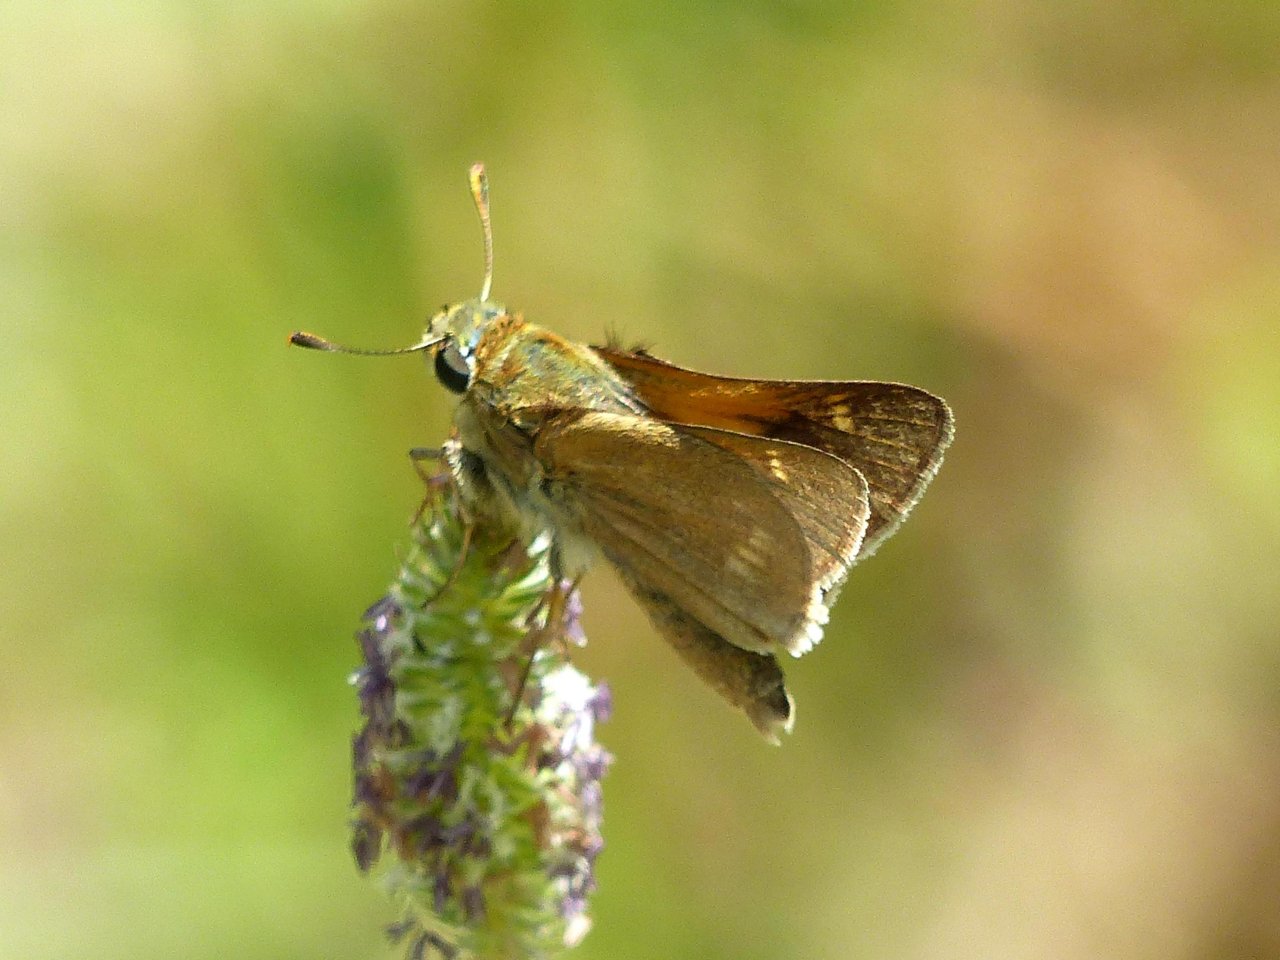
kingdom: Animalia
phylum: Arthropoda
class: Insecta
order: Lepidoptera
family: Hesperiidae
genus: Polites
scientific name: Polites
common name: Crossline Skipper
